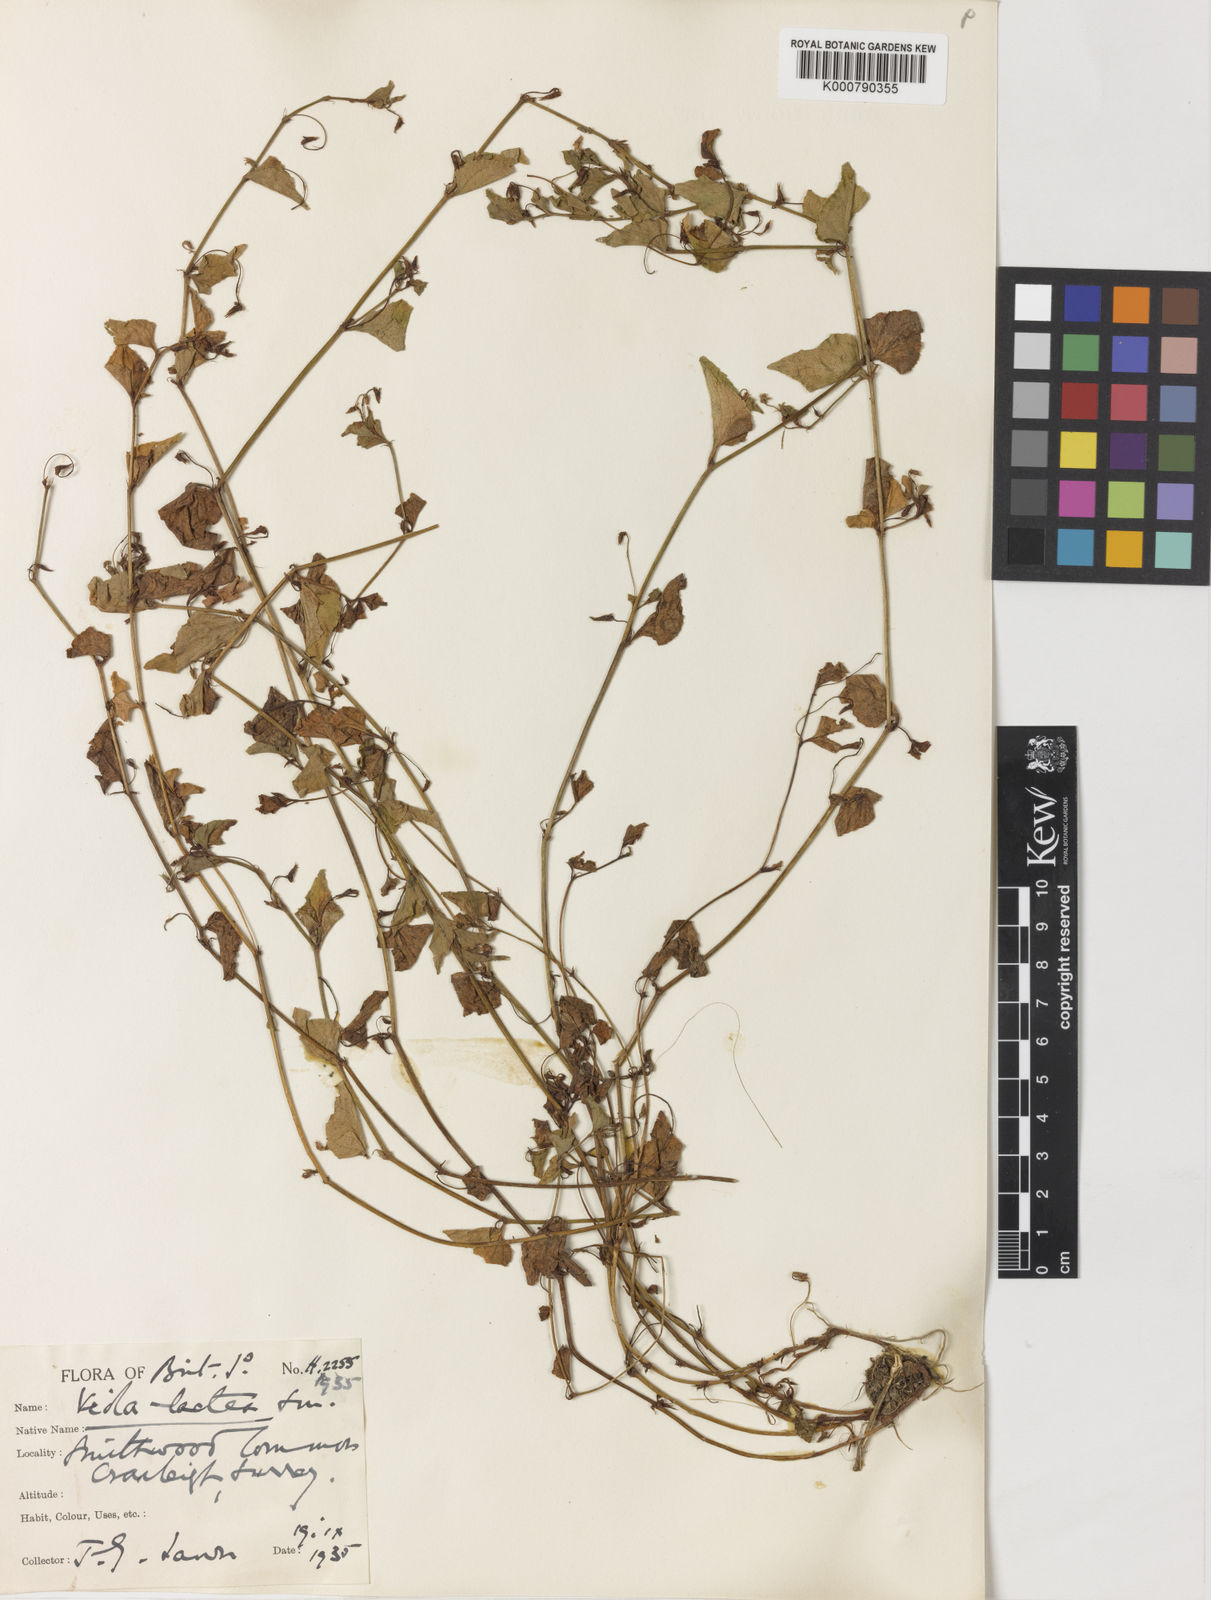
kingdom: Plantae
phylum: Tracheophyta
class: Magnoliopsida
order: Malpighiales
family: Violaceae
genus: Viola
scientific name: Viola lactea
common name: Pale dog-violet
